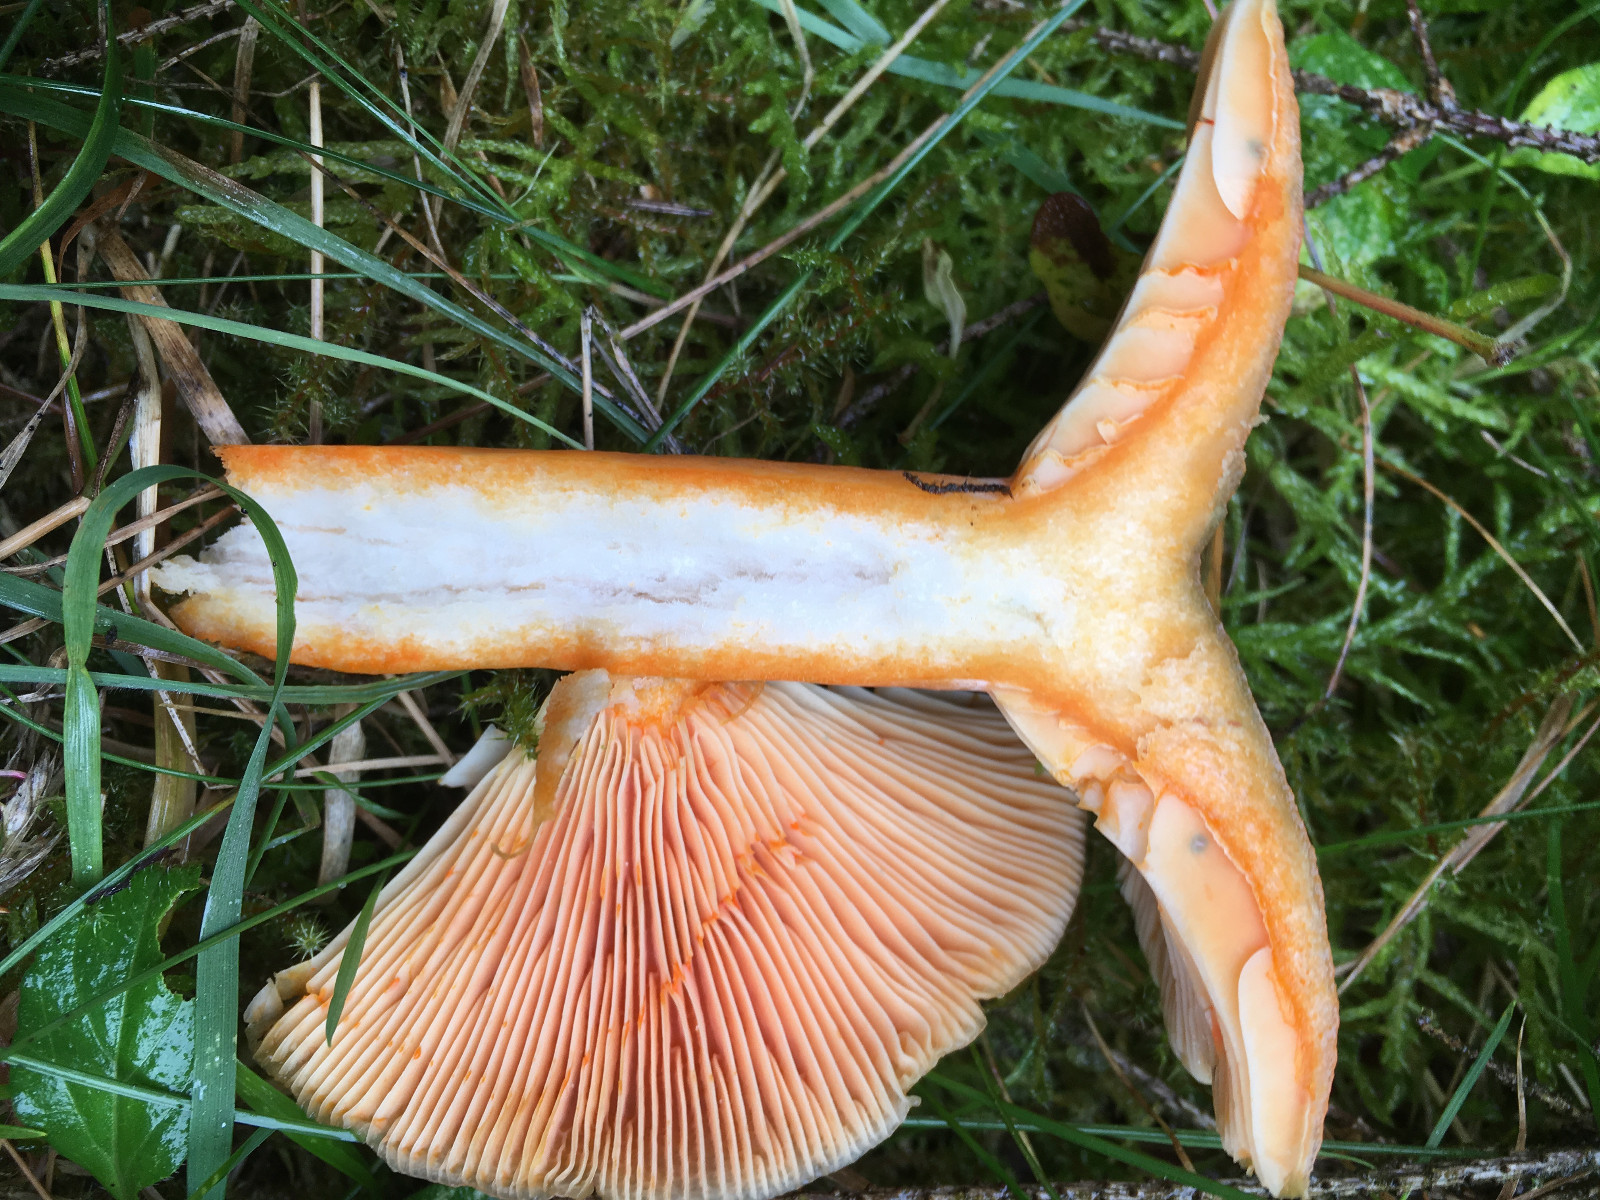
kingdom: Fungi
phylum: Basidiomycota
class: Agaricomycetes
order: Russulales
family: Russulaceae
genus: Lactarius
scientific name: Lactarius deterrimus
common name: gran-mælkehat
